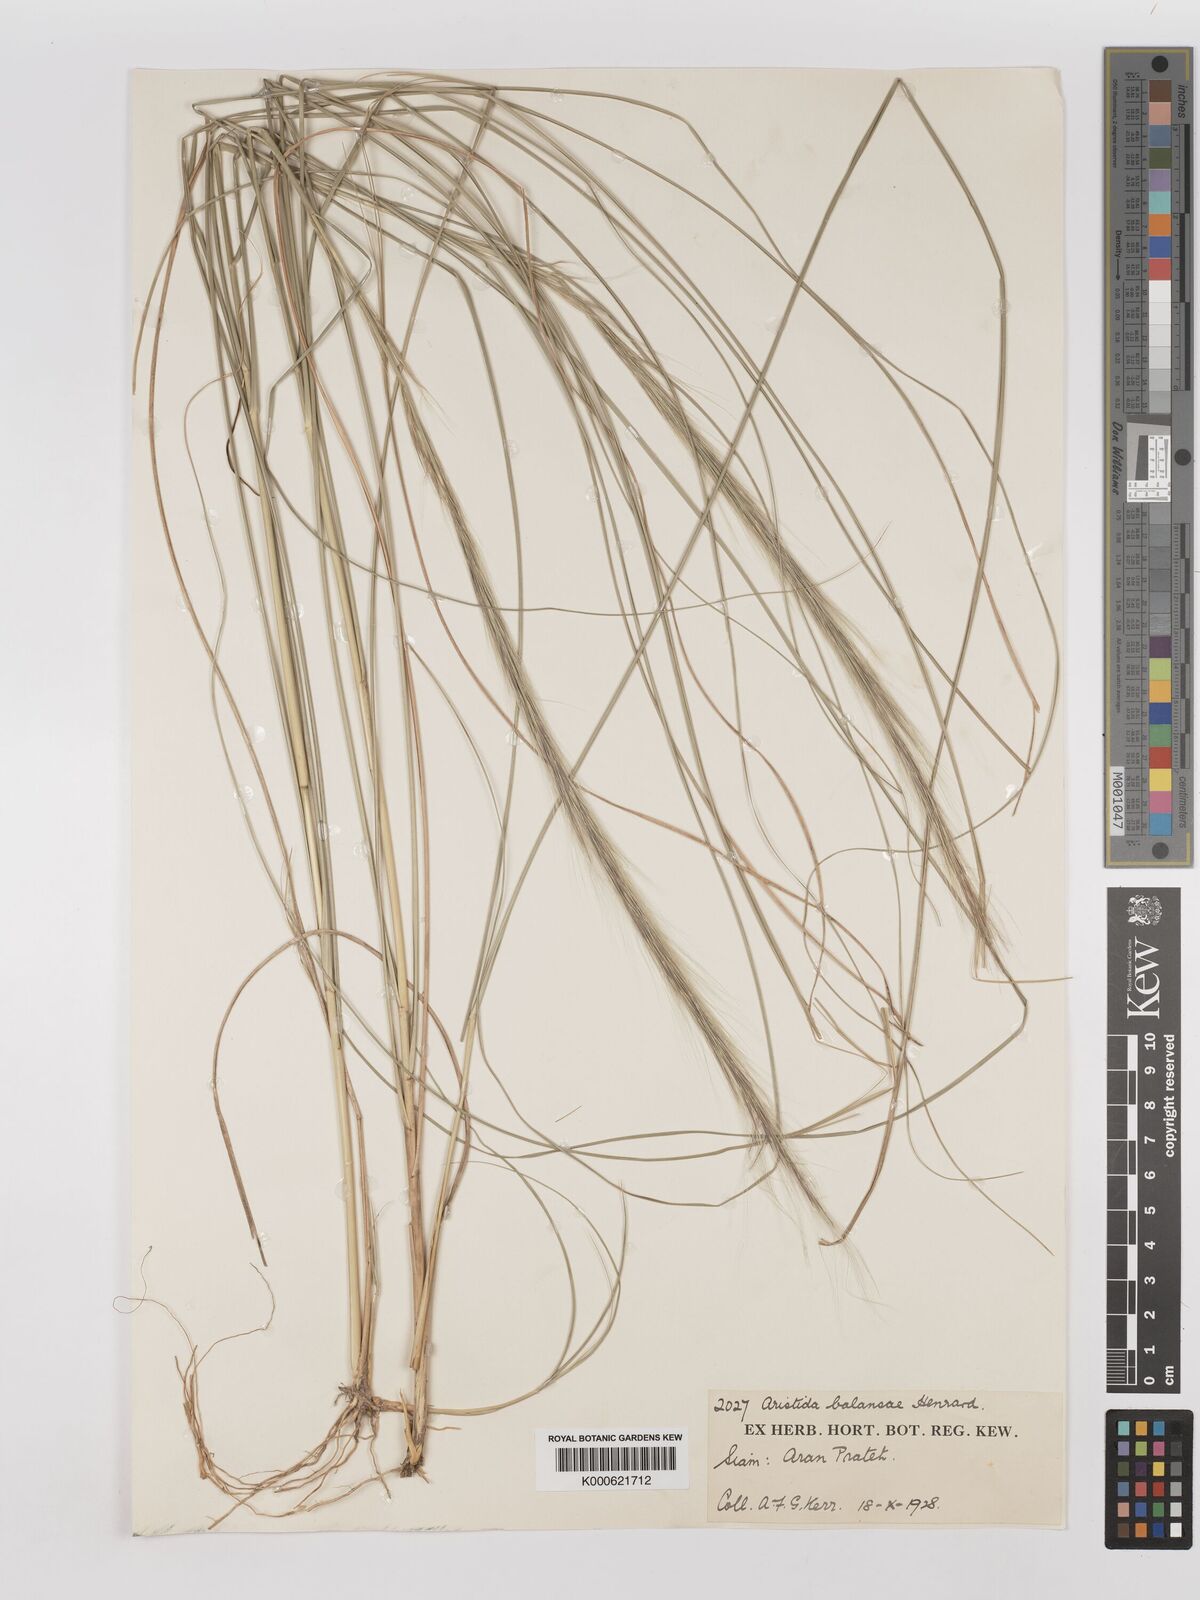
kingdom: Plantae
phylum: Tracheophyta
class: Liliopsida
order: Poales
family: Poaceae
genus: Aristida
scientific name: Aristida balansae
